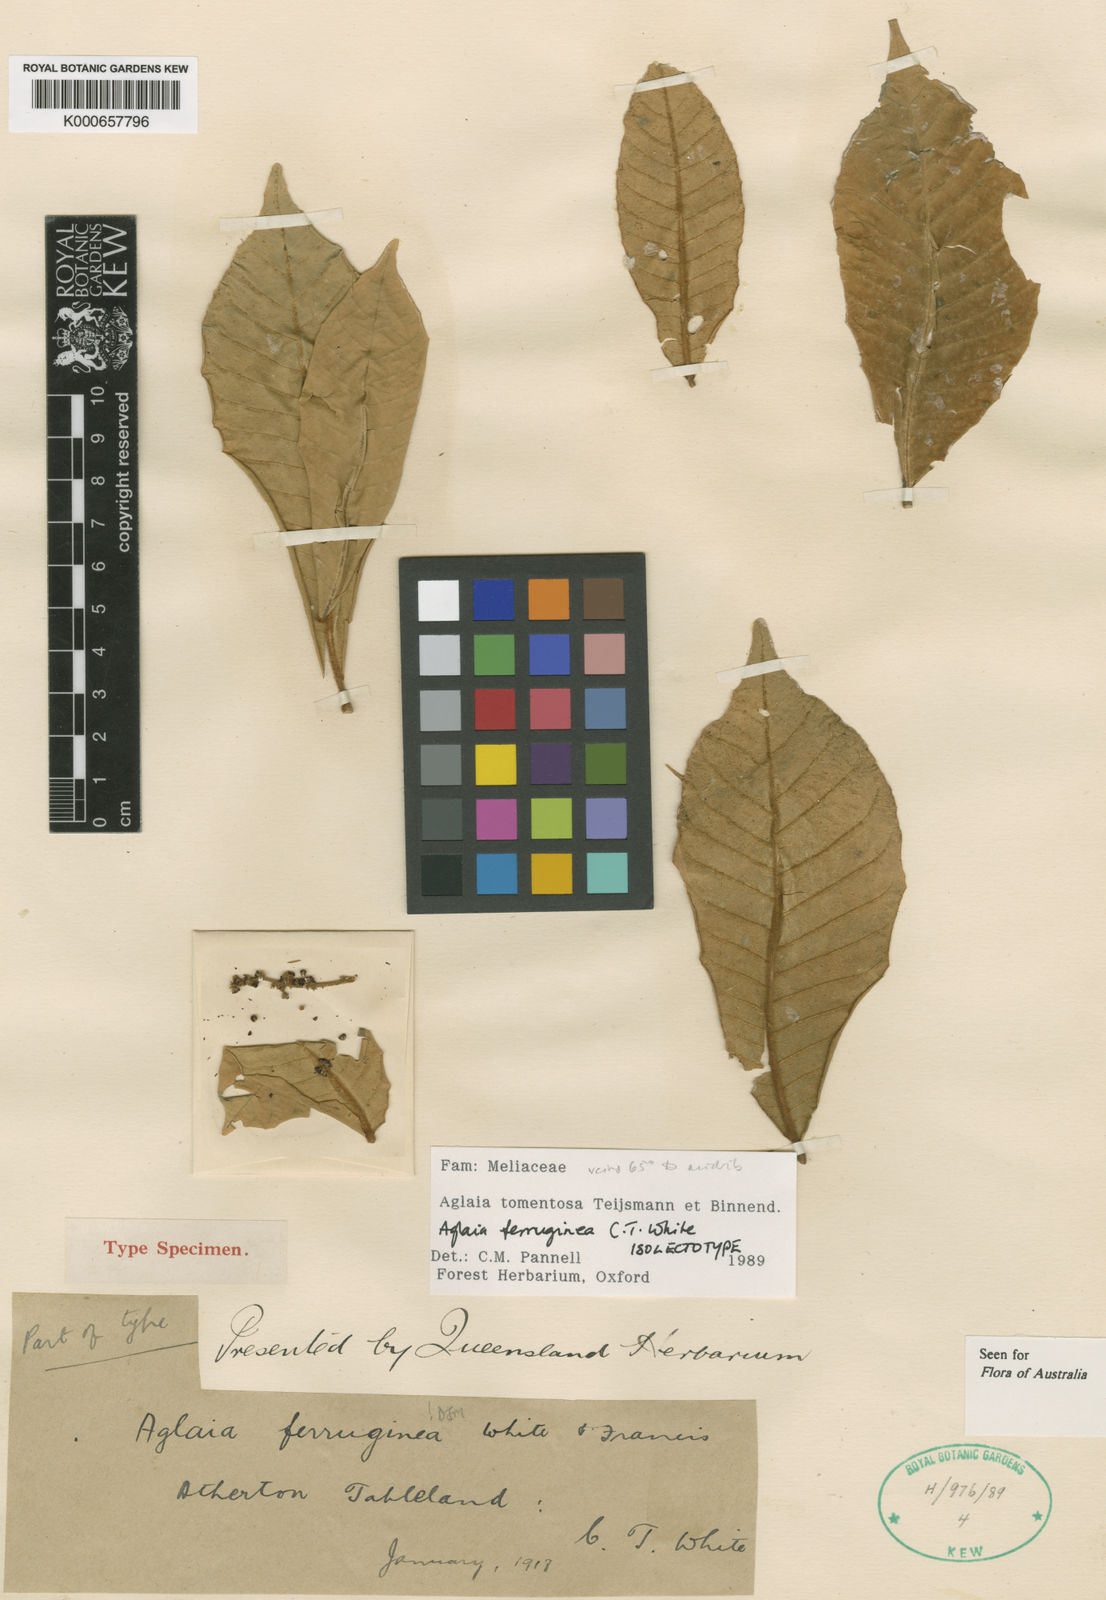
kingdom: Plantae
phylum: Tracheophyta
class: Magnoliopsida
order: Sapindales
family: Meliaceae
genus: Aglaia
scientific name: Aglaia tomentosa
